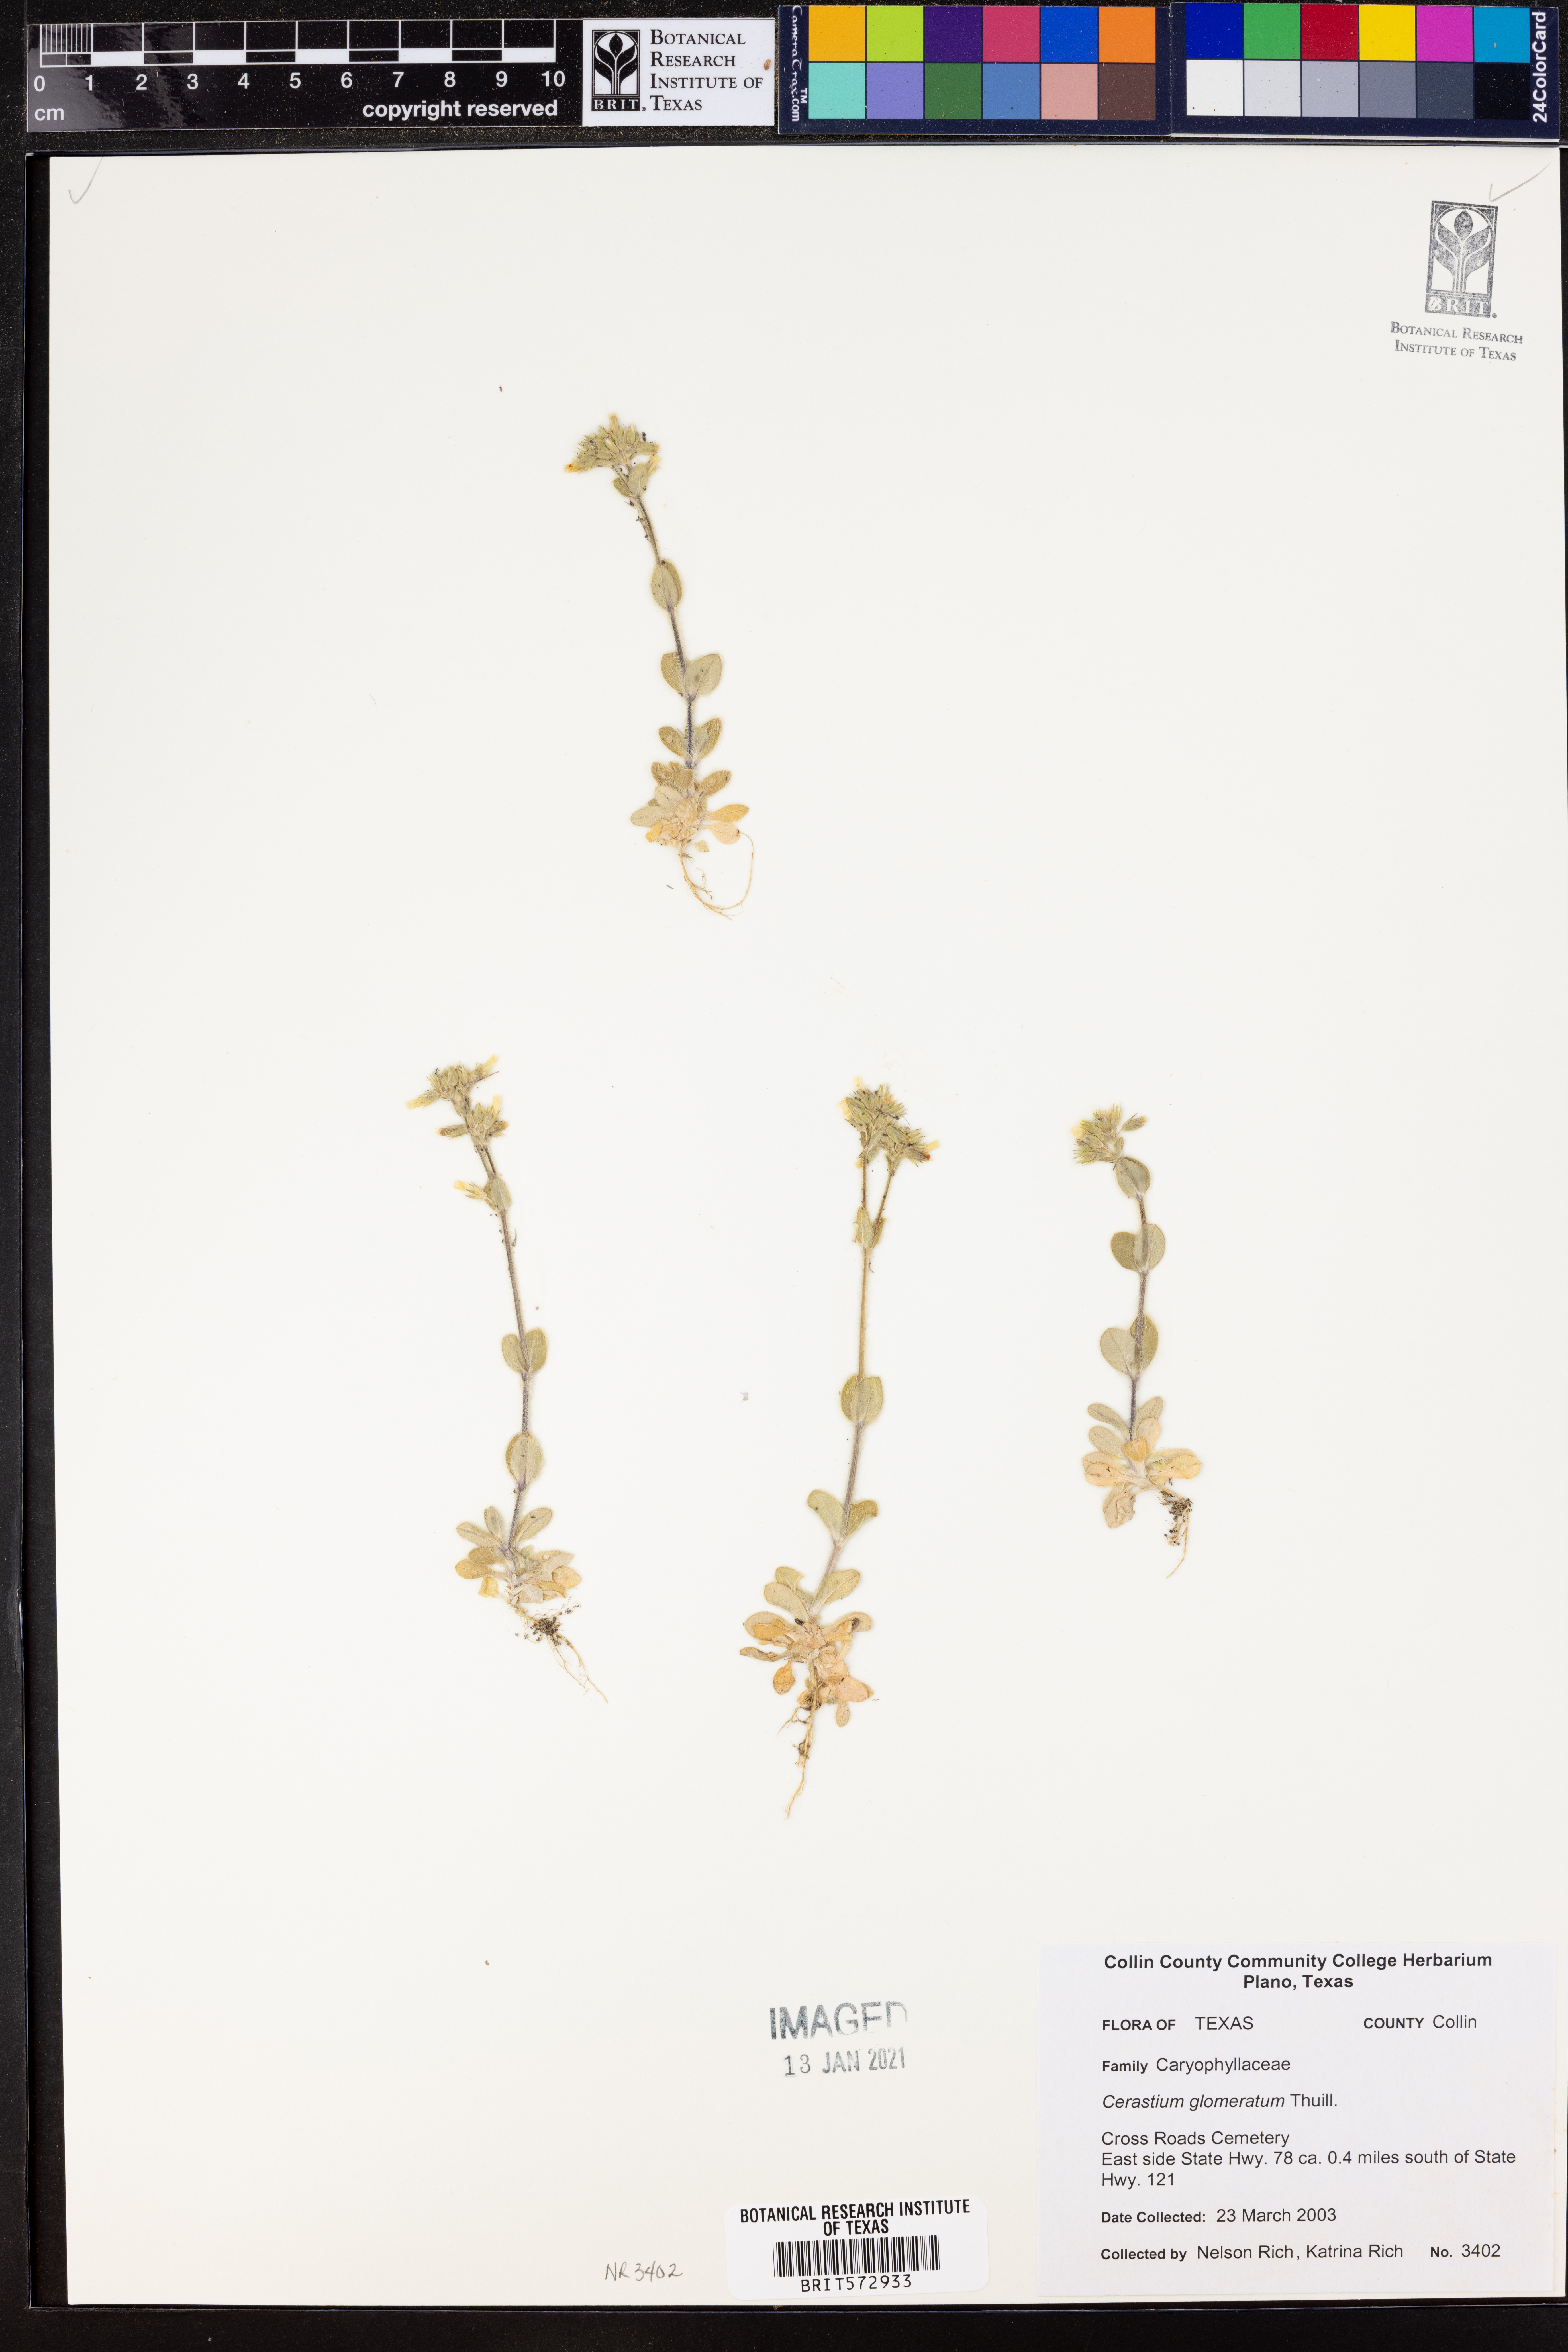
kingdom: Plantae
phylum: Tracheophyta
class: Magnoliopsida
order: Caryophyllales
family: Caryophyllaceae
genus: Cerastium
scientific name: Cerastium glomeratum
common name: Sticky chickweed
